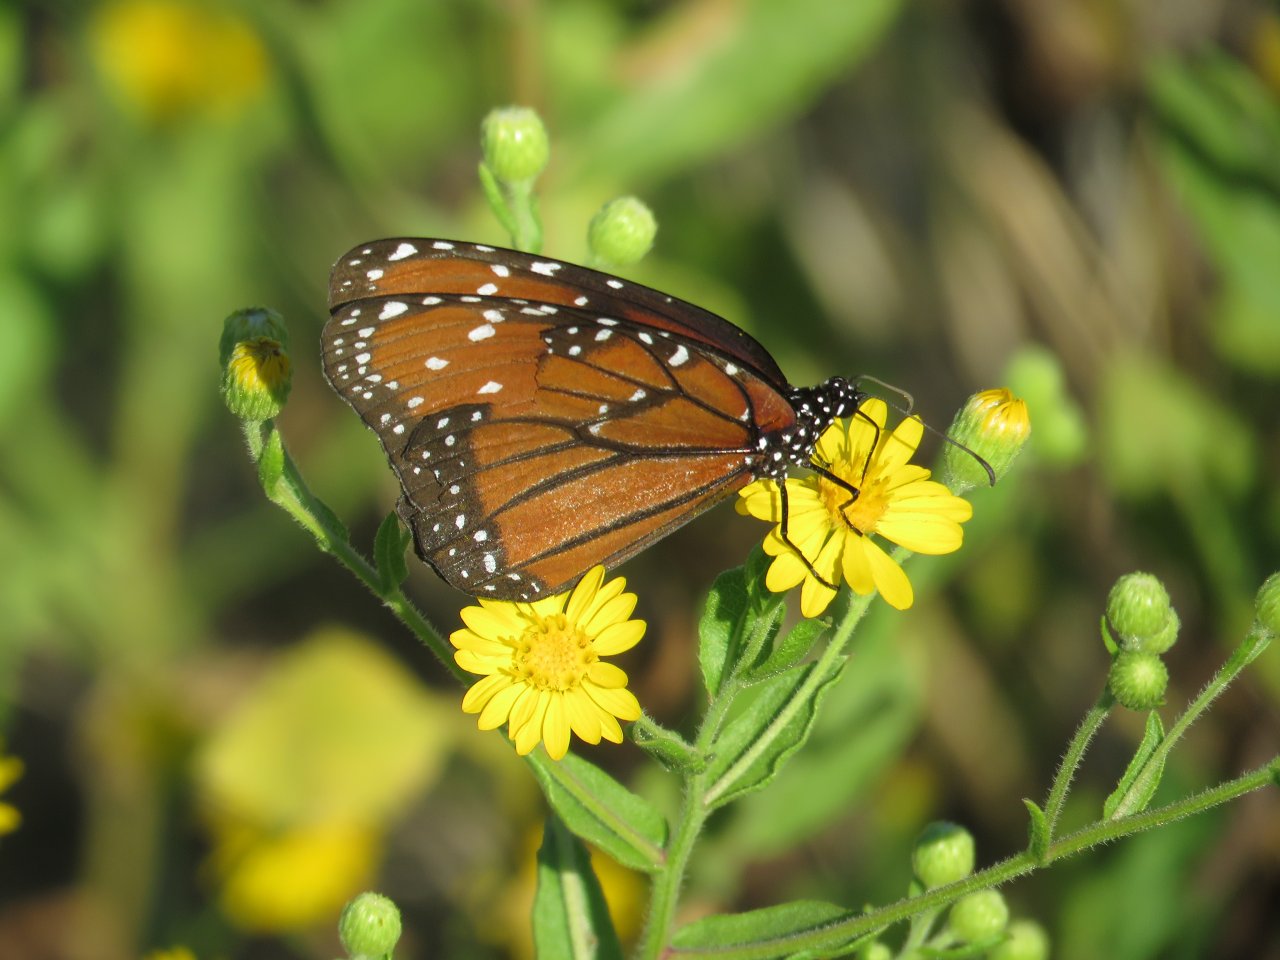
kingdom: Animalia
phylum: Arthropoda
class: Insecta
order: Lepidoptera
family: Nymphalidae
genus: Danaus
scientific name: Danaus gilippus
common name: Queen
